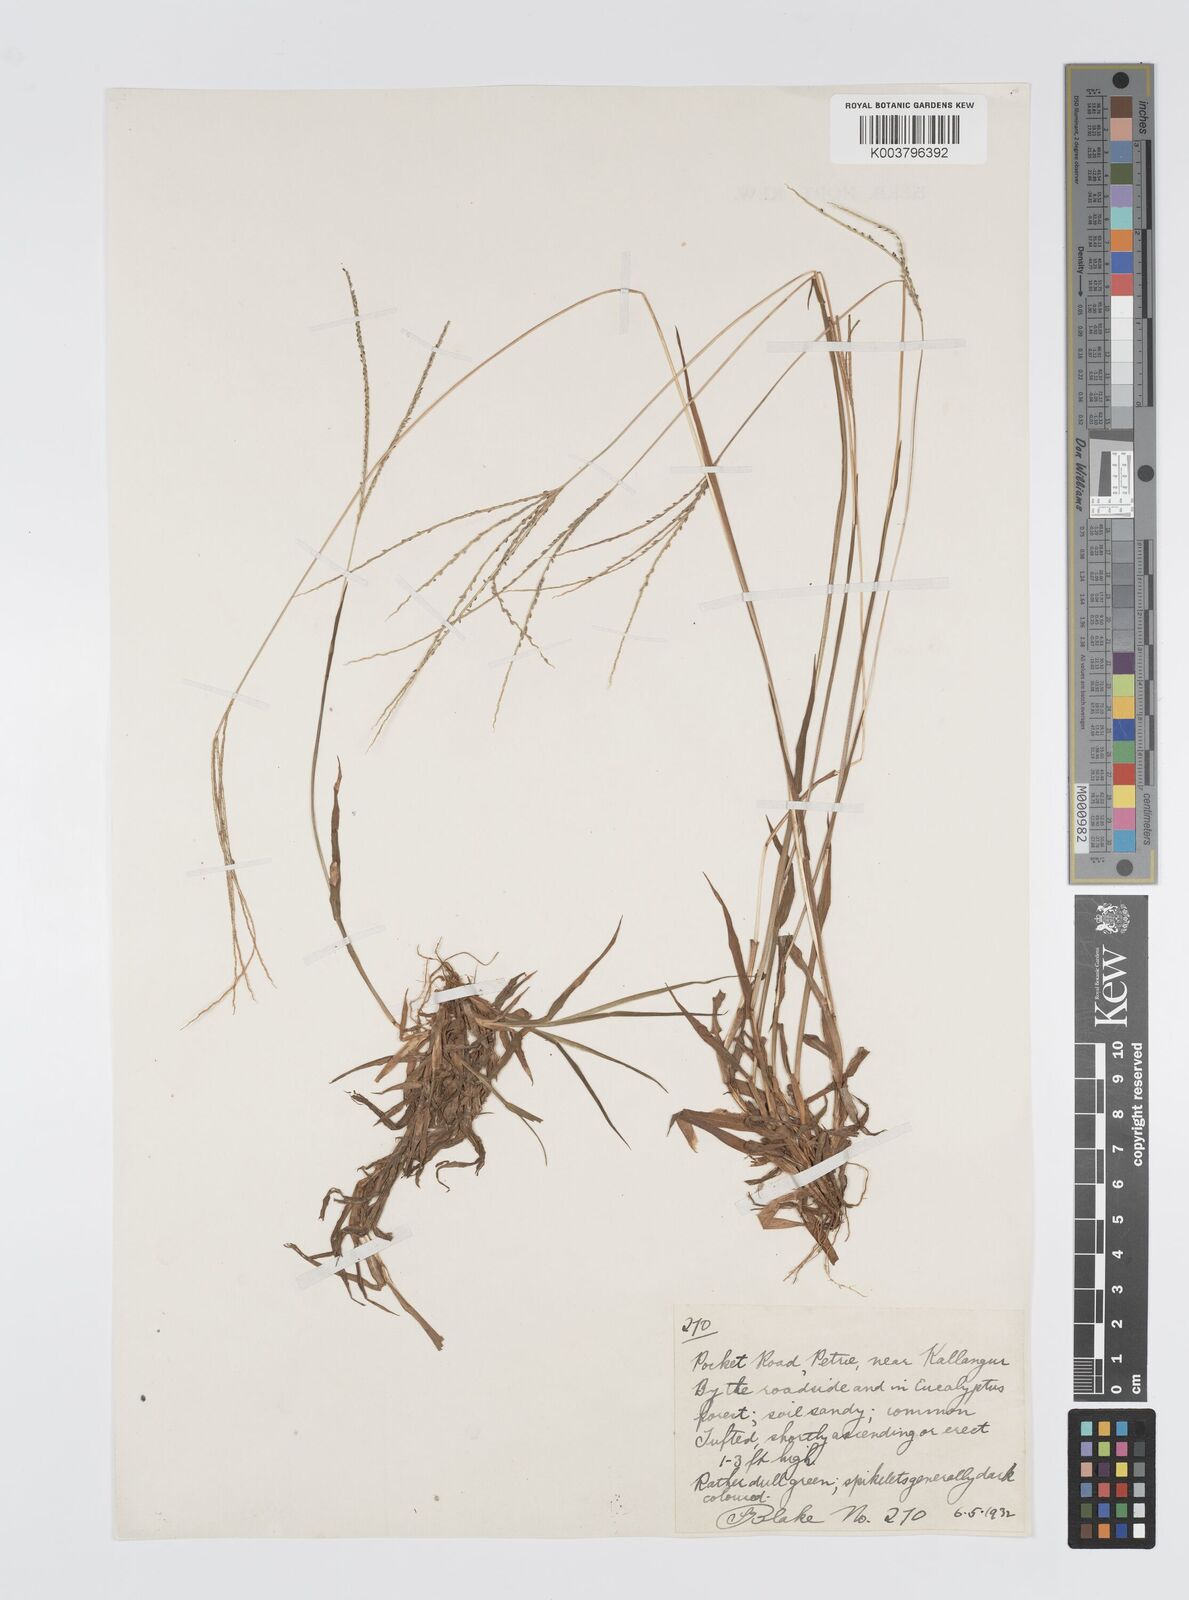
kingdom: Plantae
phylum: Tracheophyta
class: Liliopsida
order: Poales
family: Poaceae
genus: Digitaria
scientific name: Digitaria violascens
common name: Violet crabgrass
